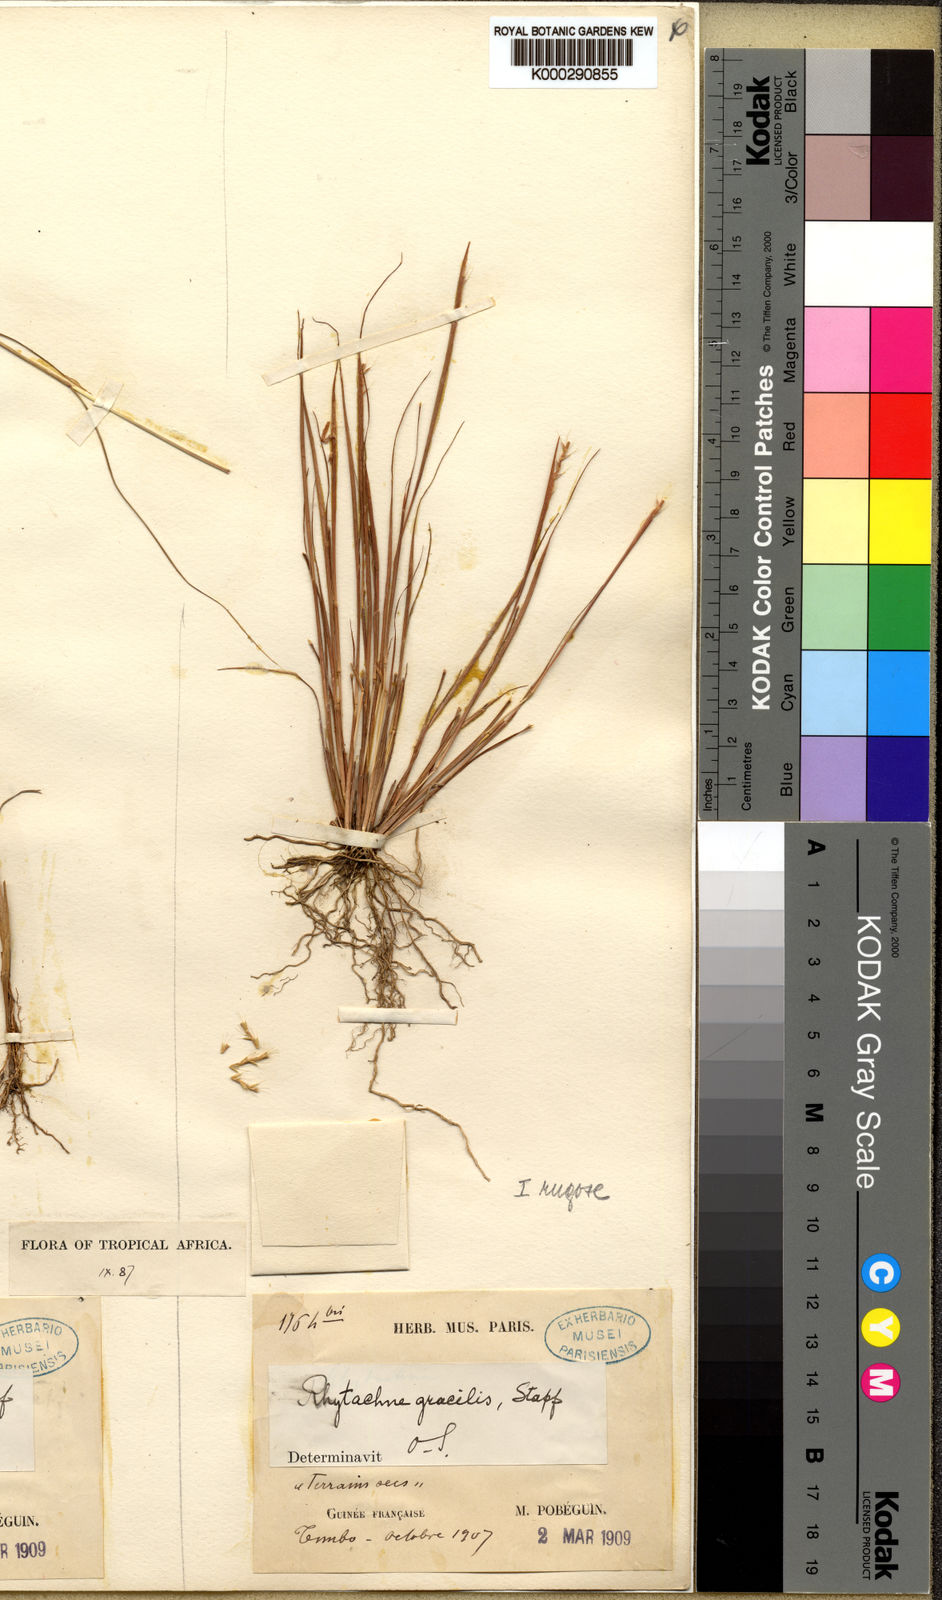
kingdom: Plantae
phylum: Tracheophyta
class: Liliopsida
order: Poales
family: Poaceae
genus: Rhytachne
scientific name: Rhytachne gracilis
